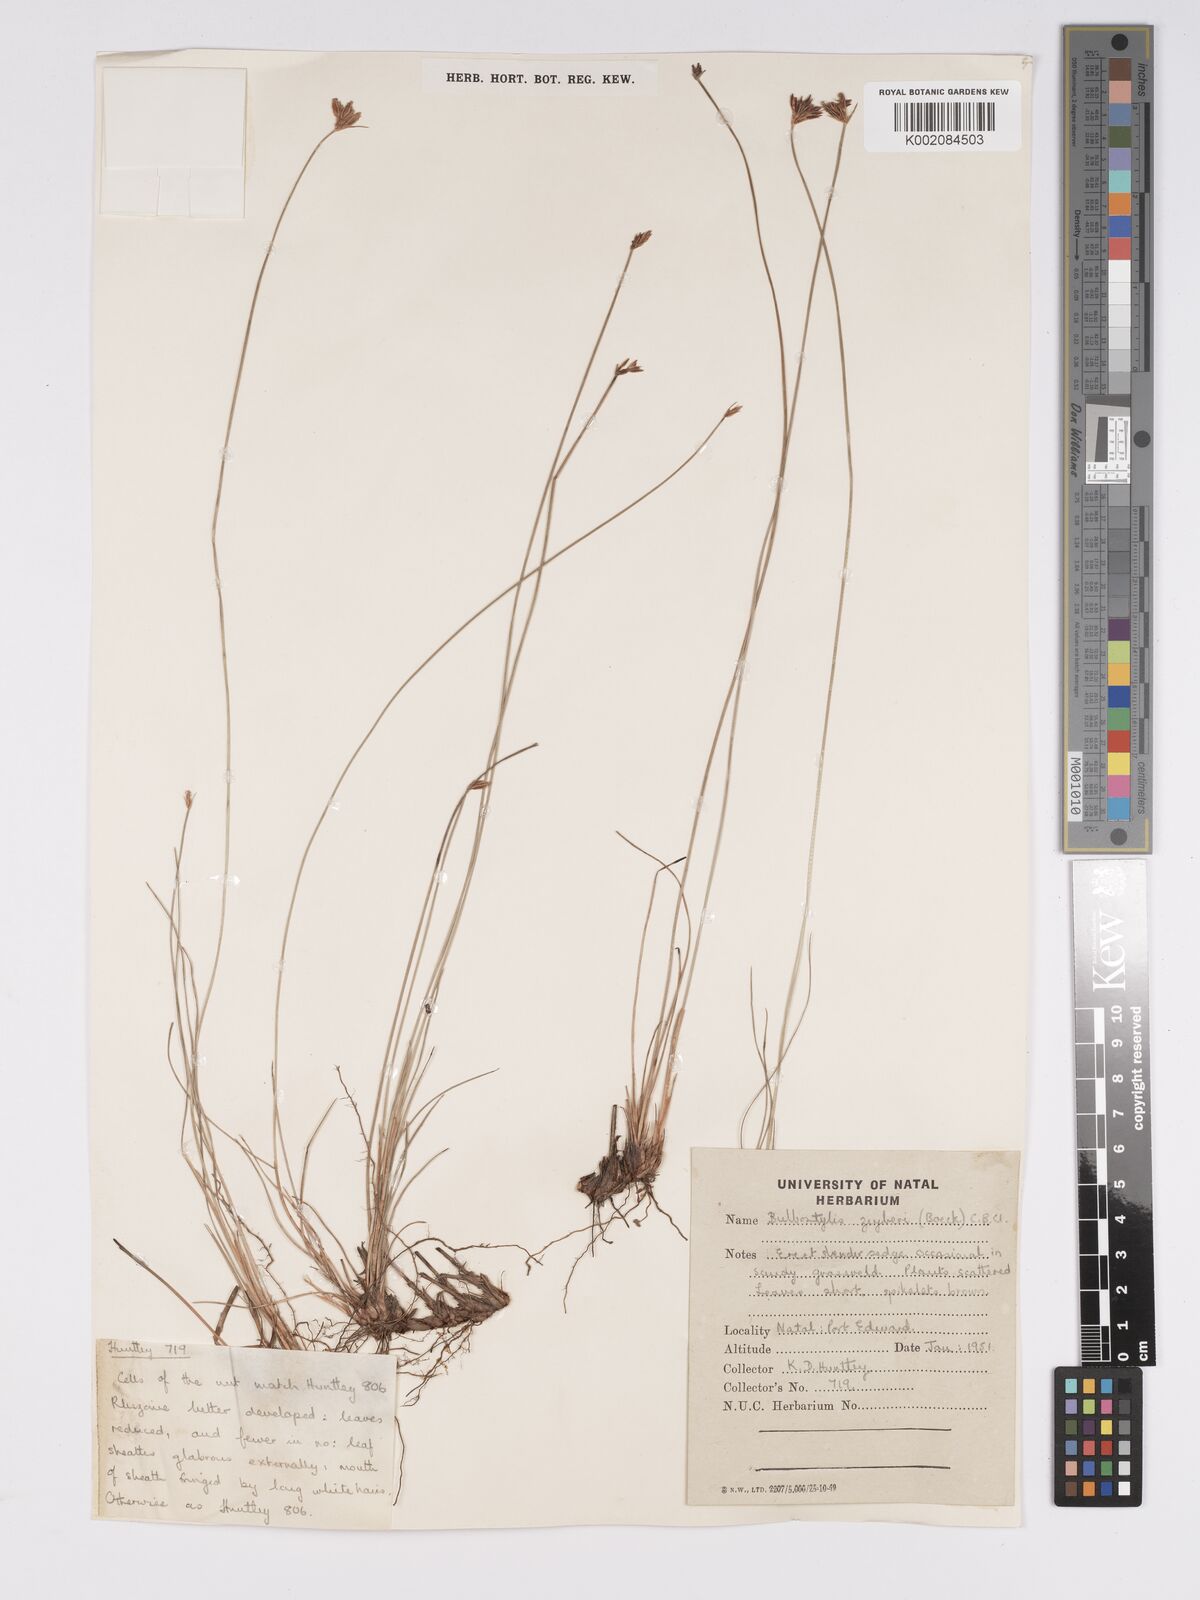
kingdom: Plantae
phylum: Tracheophyta
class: Liliopsida
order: Poales
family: Cyperaceae
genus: Bulbostylis
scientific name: Bulbostylis contexta
